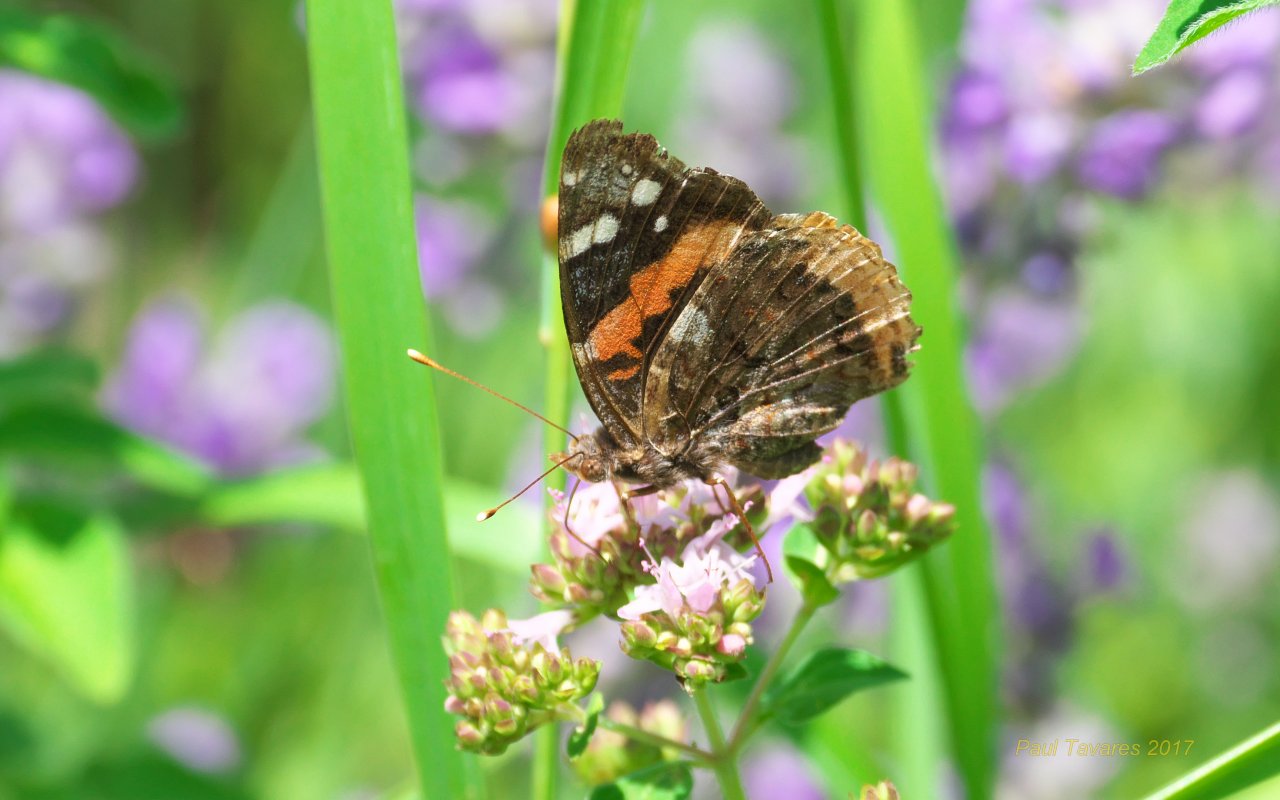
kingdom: Animalia
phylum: Arthropoda
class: Insecta
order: Lepidoptera
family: Nymphalidae
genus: Vanessa
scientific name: Vanessa atalanta
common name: Red Admiral
